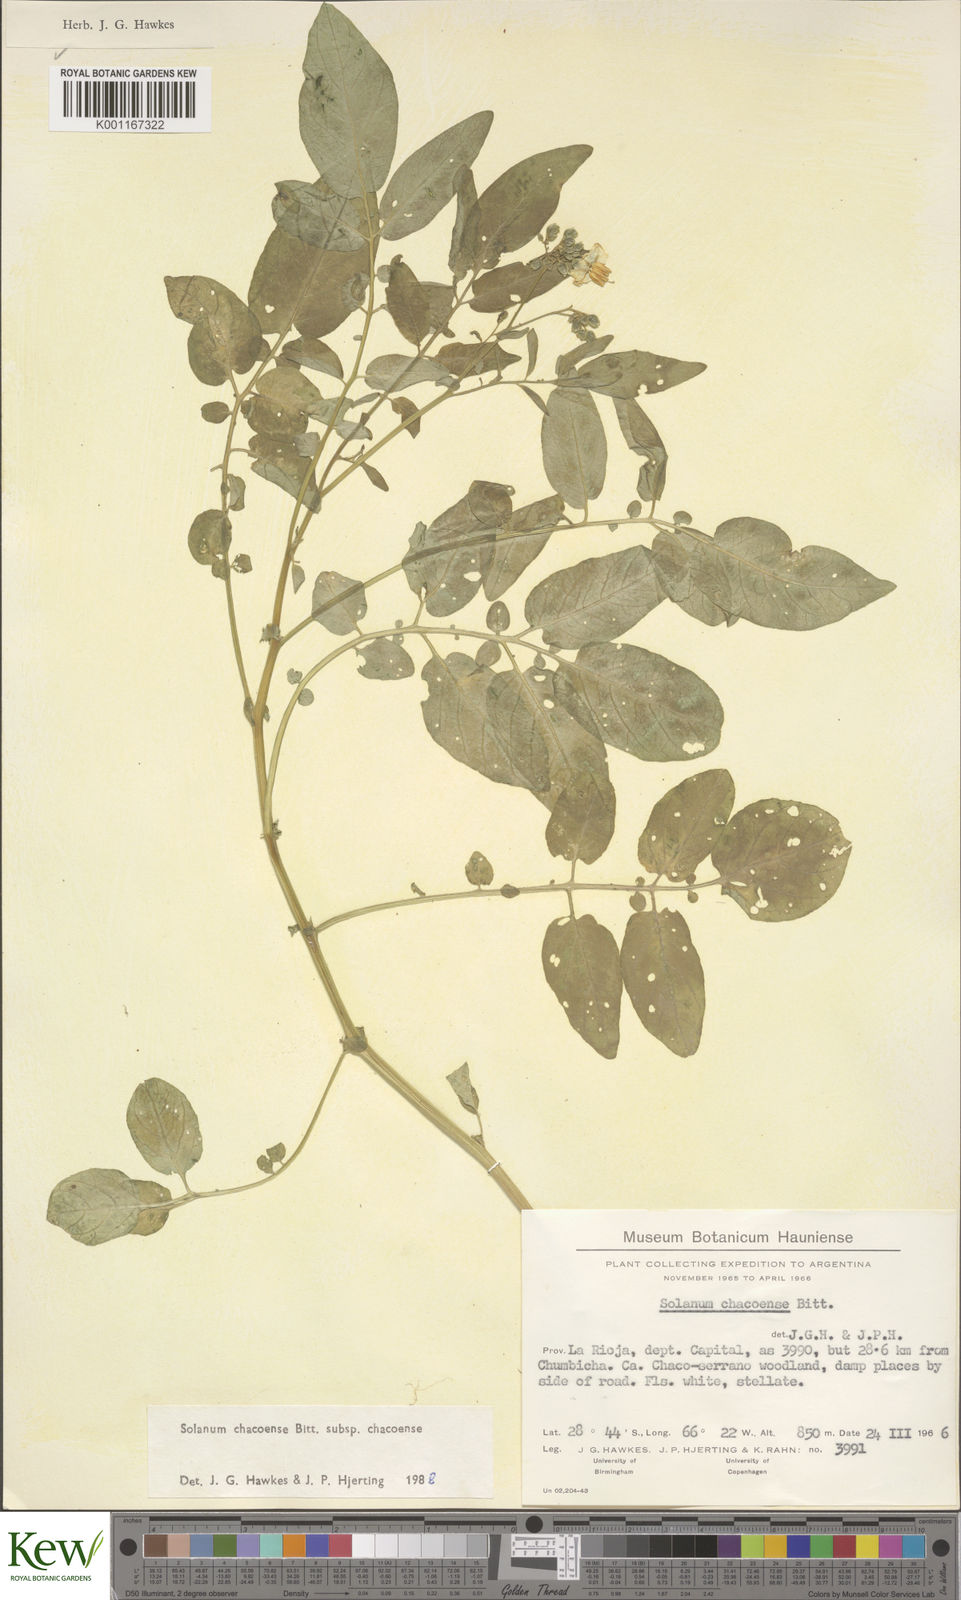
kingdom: Plantae
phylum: Tracheophyta
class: Magnoliopsida
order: Solanales
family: Solanaceae
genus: Solanum
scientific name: Solanum chacoense
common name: Chaco potato
